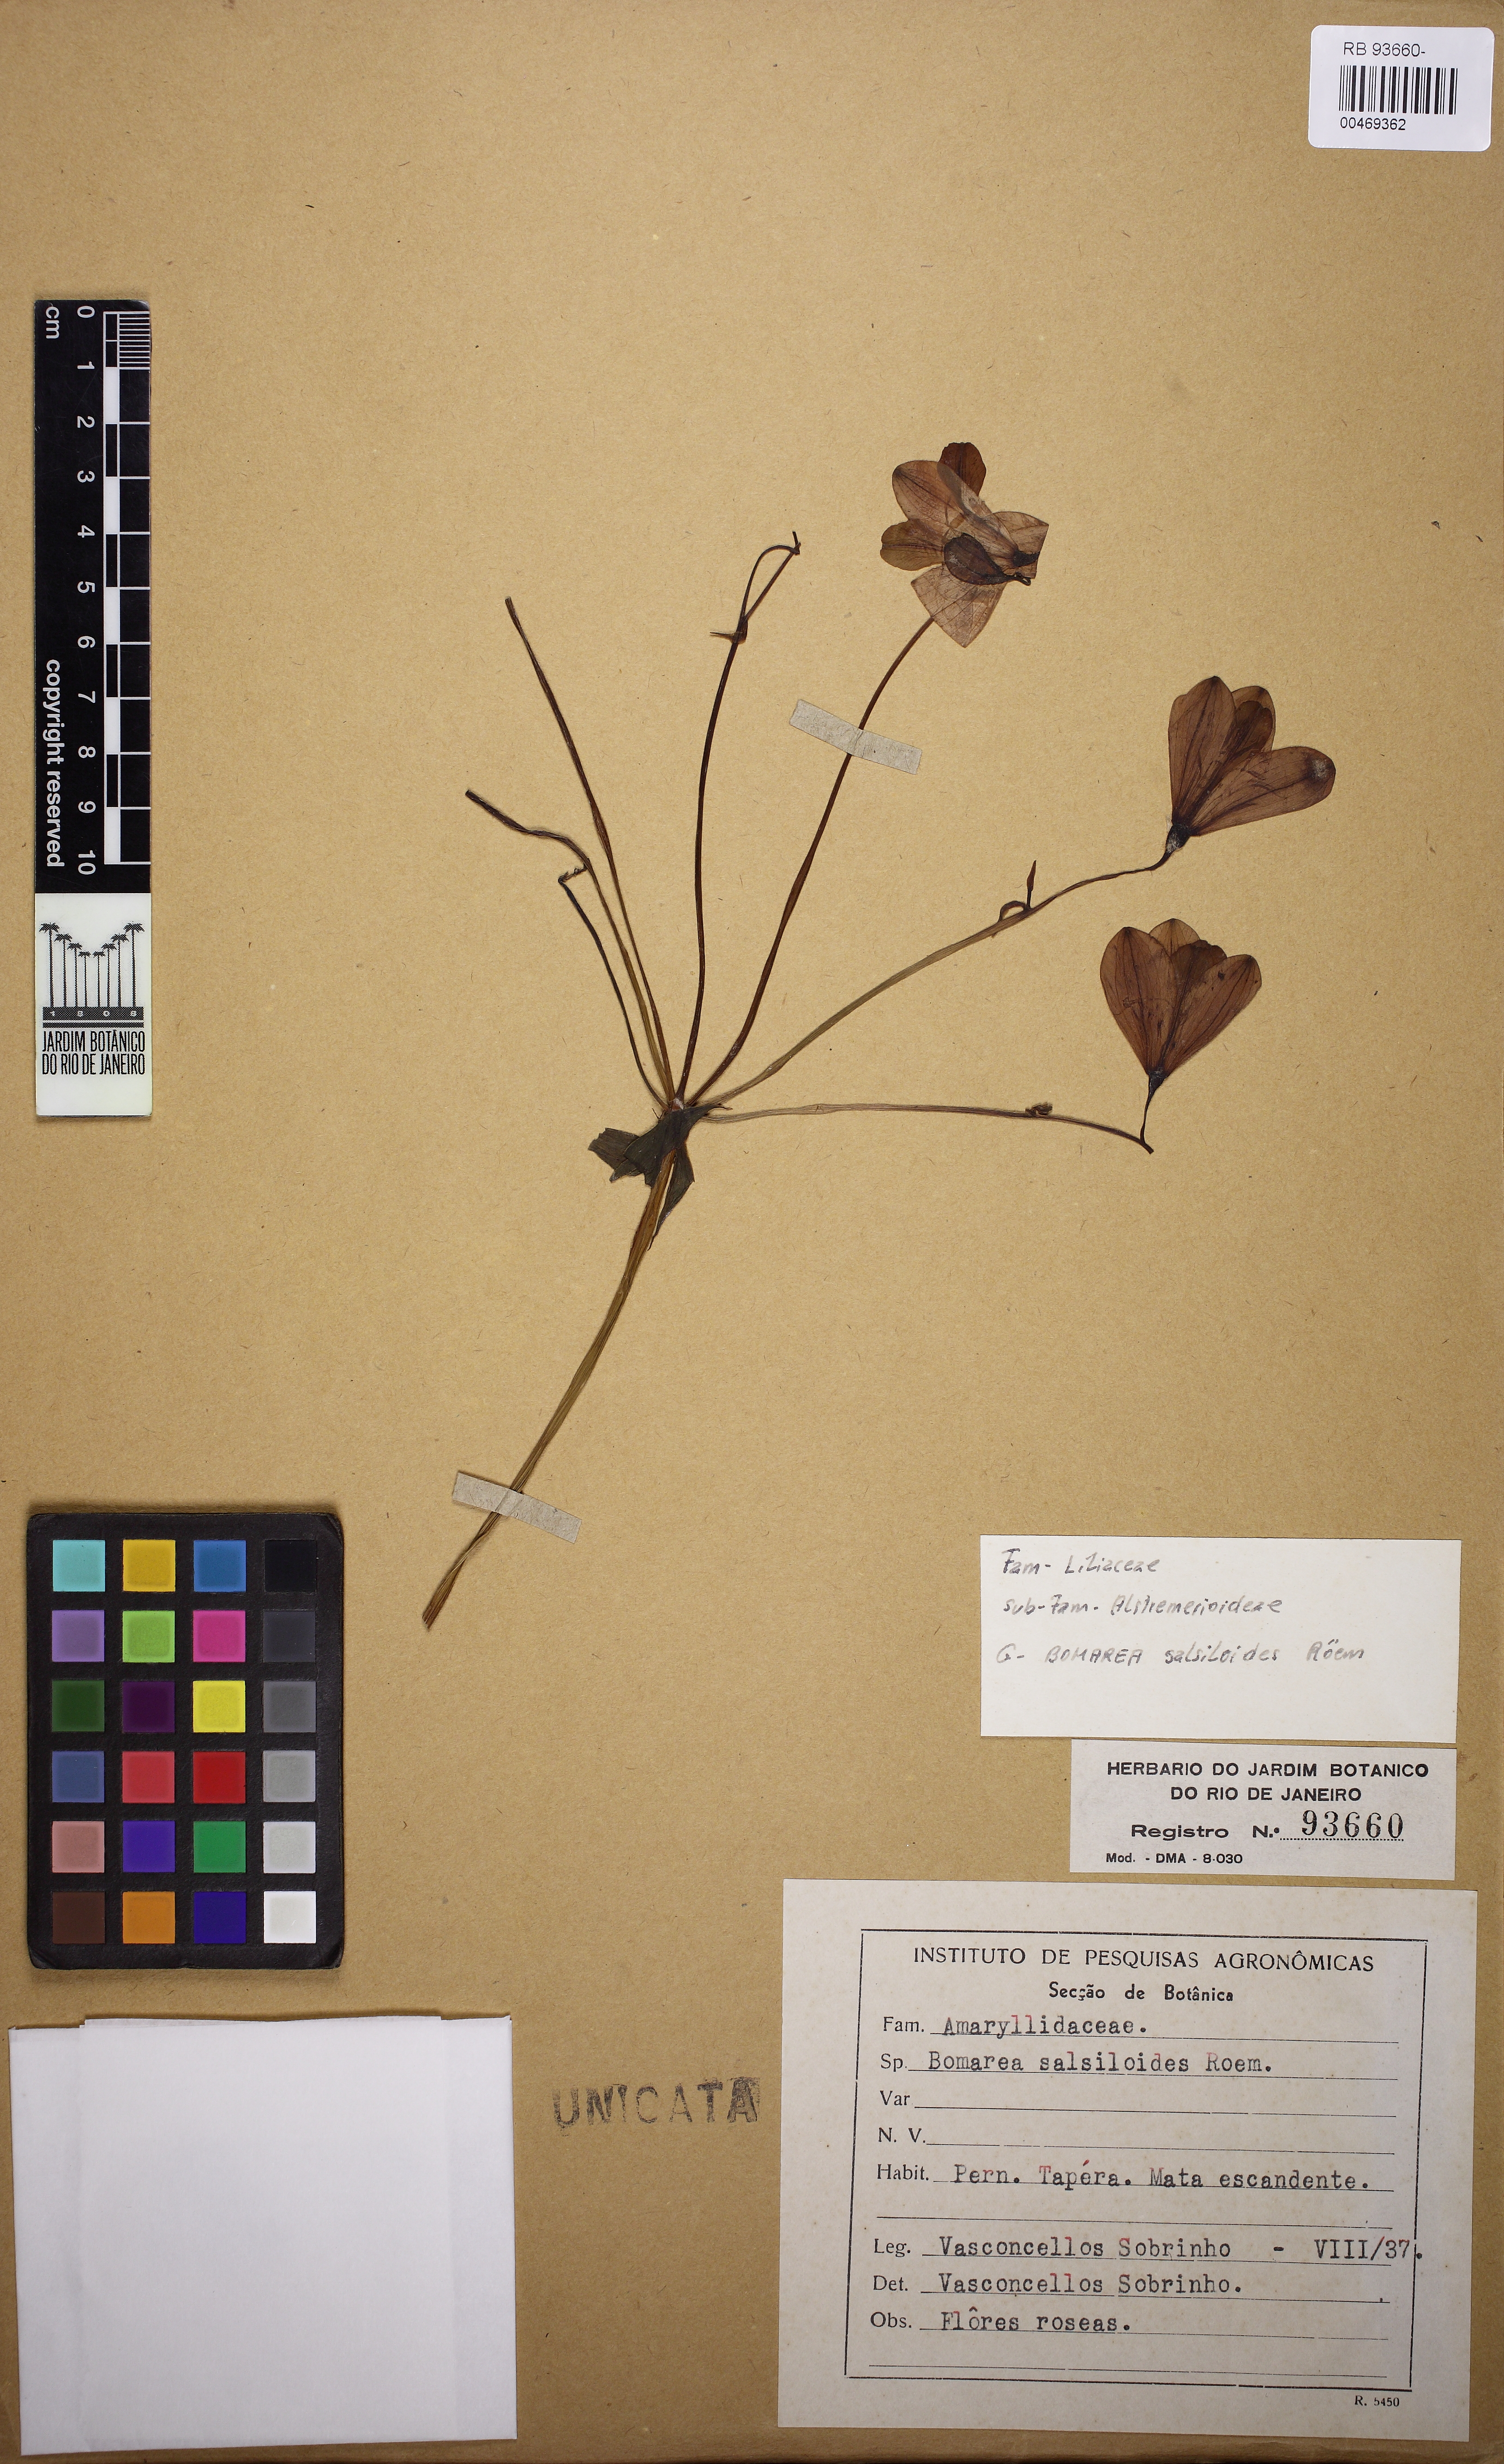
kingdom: Plantae
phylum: Tracheophyta
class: Liliopsida
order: Liliales
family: Alstroemeriaceae
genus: Bomarea
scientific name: Bomarea edulis
